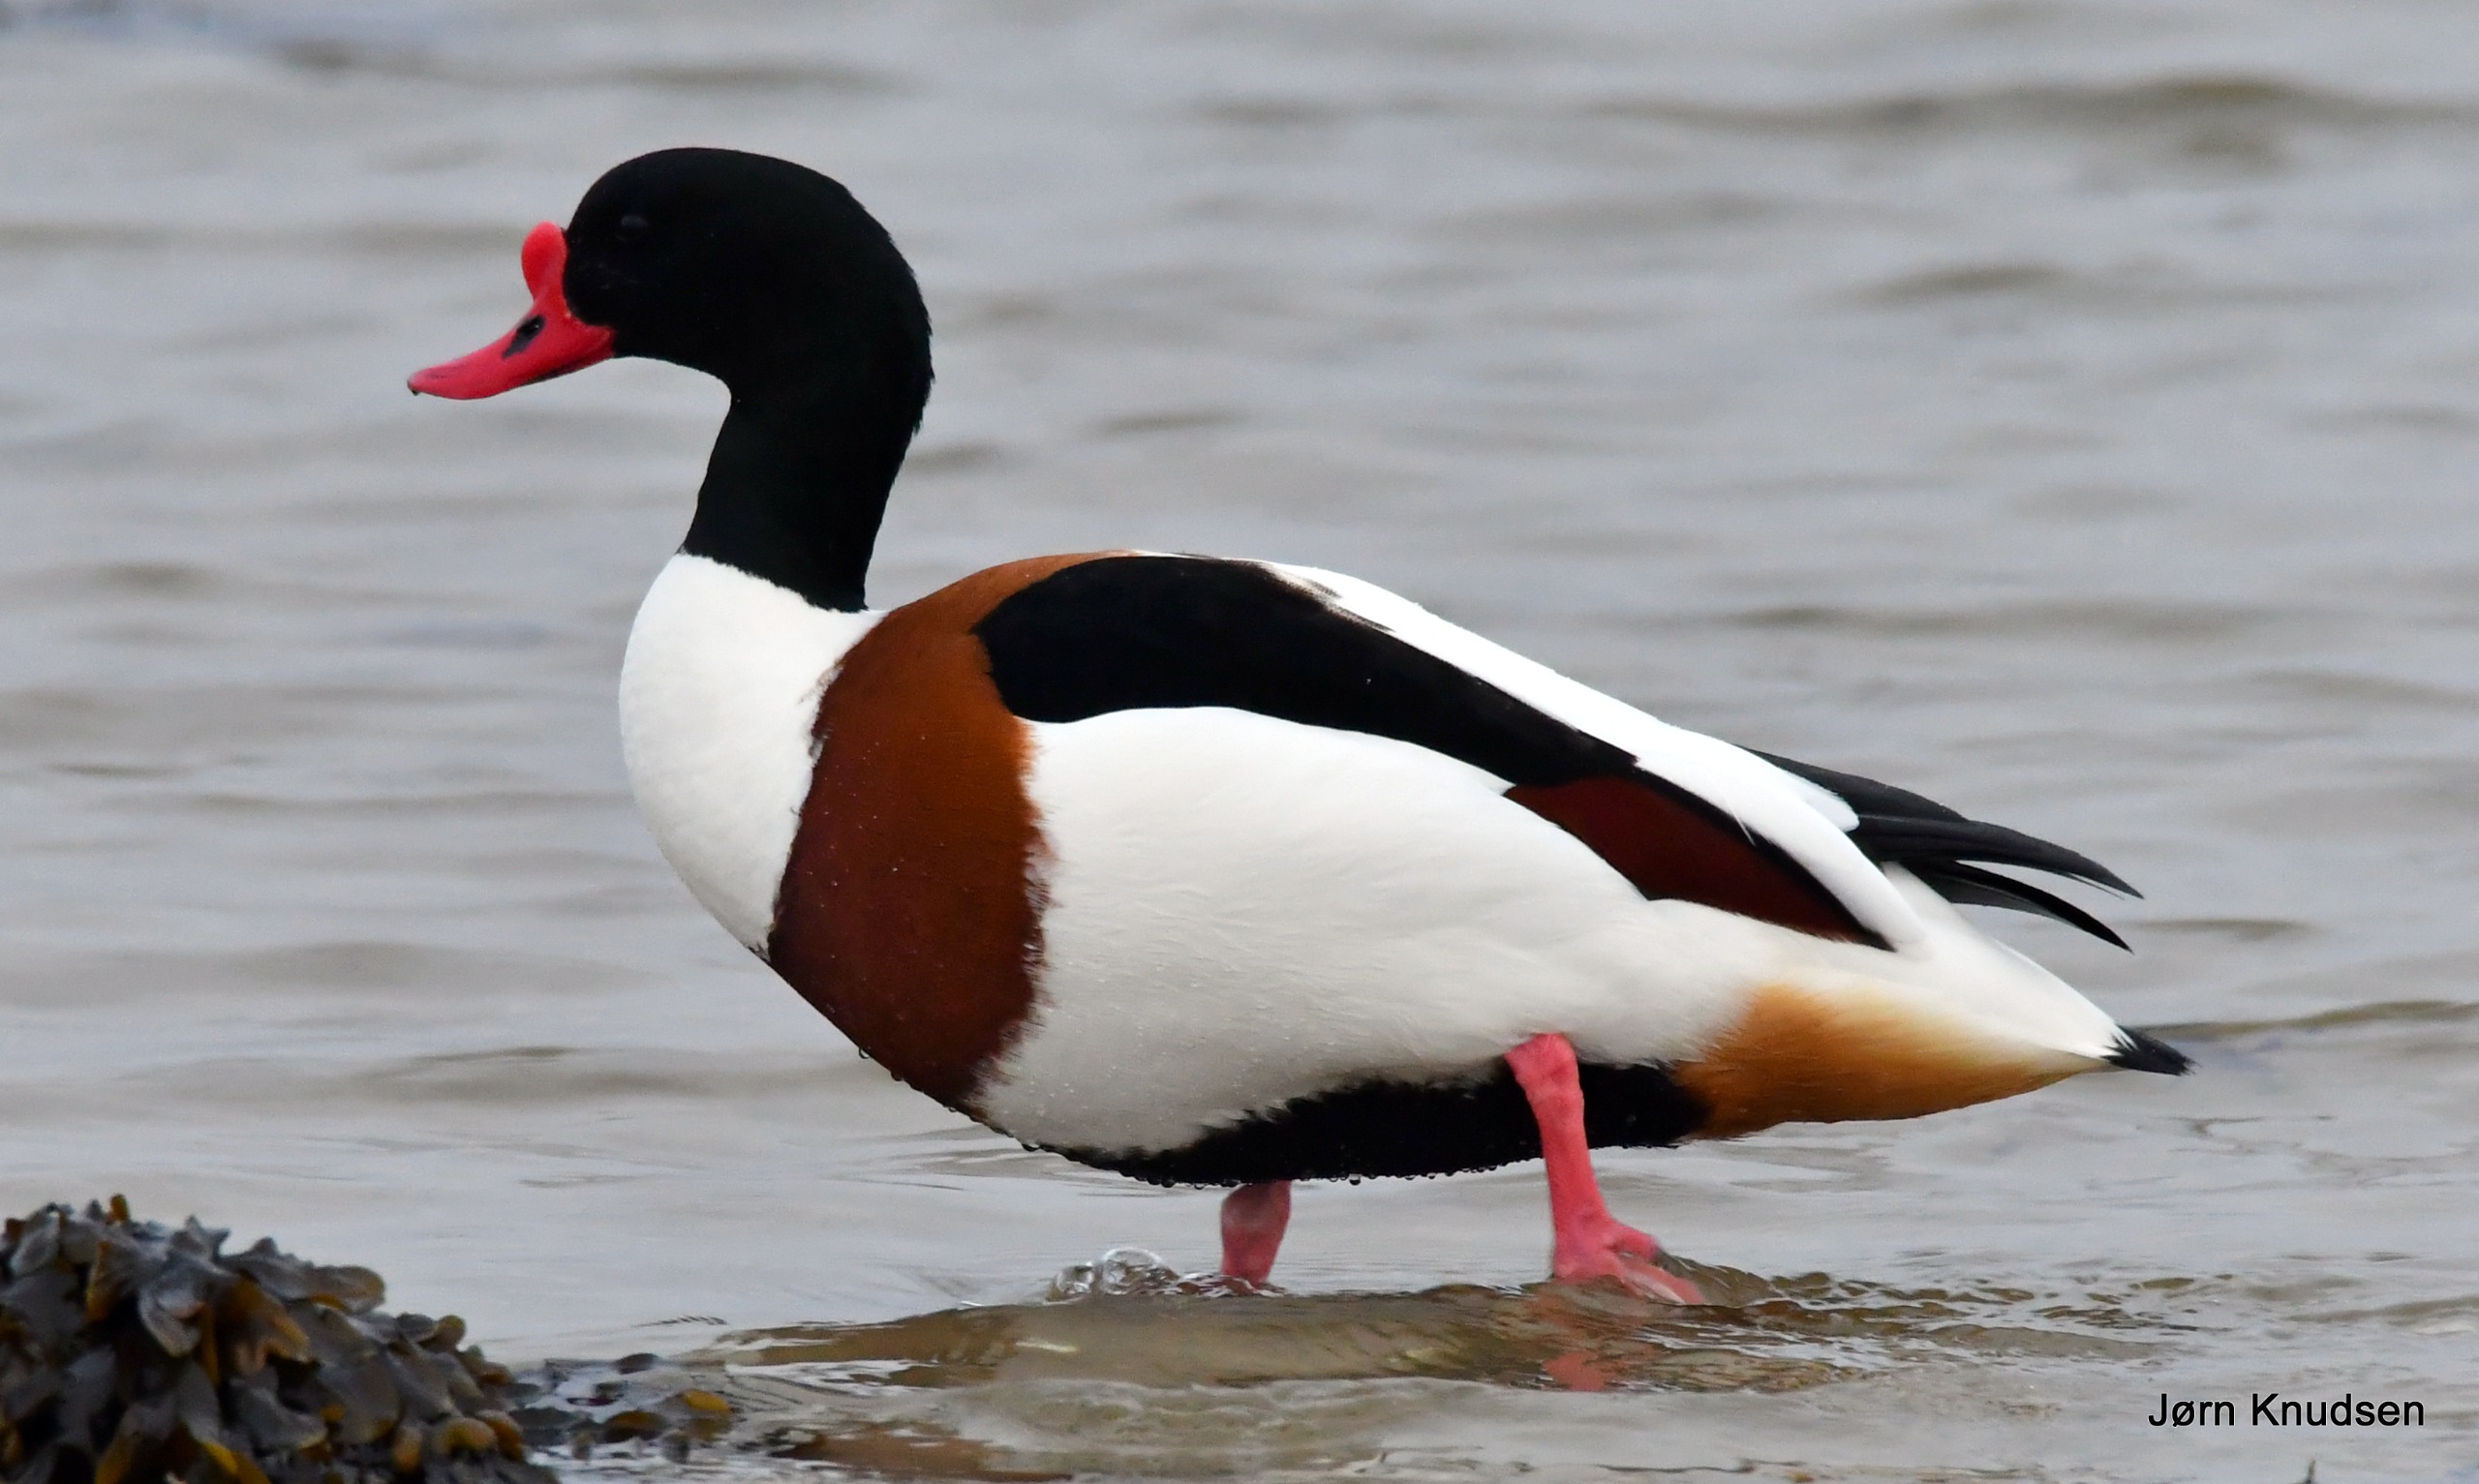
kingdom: Animalia
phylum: Chordata
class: Aves
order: Anseriformes
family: Anatidae
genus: Tadorna
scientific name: Tadorna tadorna
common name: Gravand
